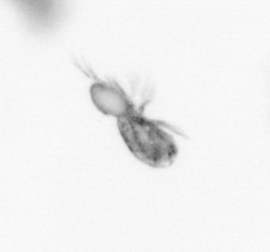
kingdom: Animalia
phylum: Arthropoda
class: Copepoda
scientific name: Copepoda
